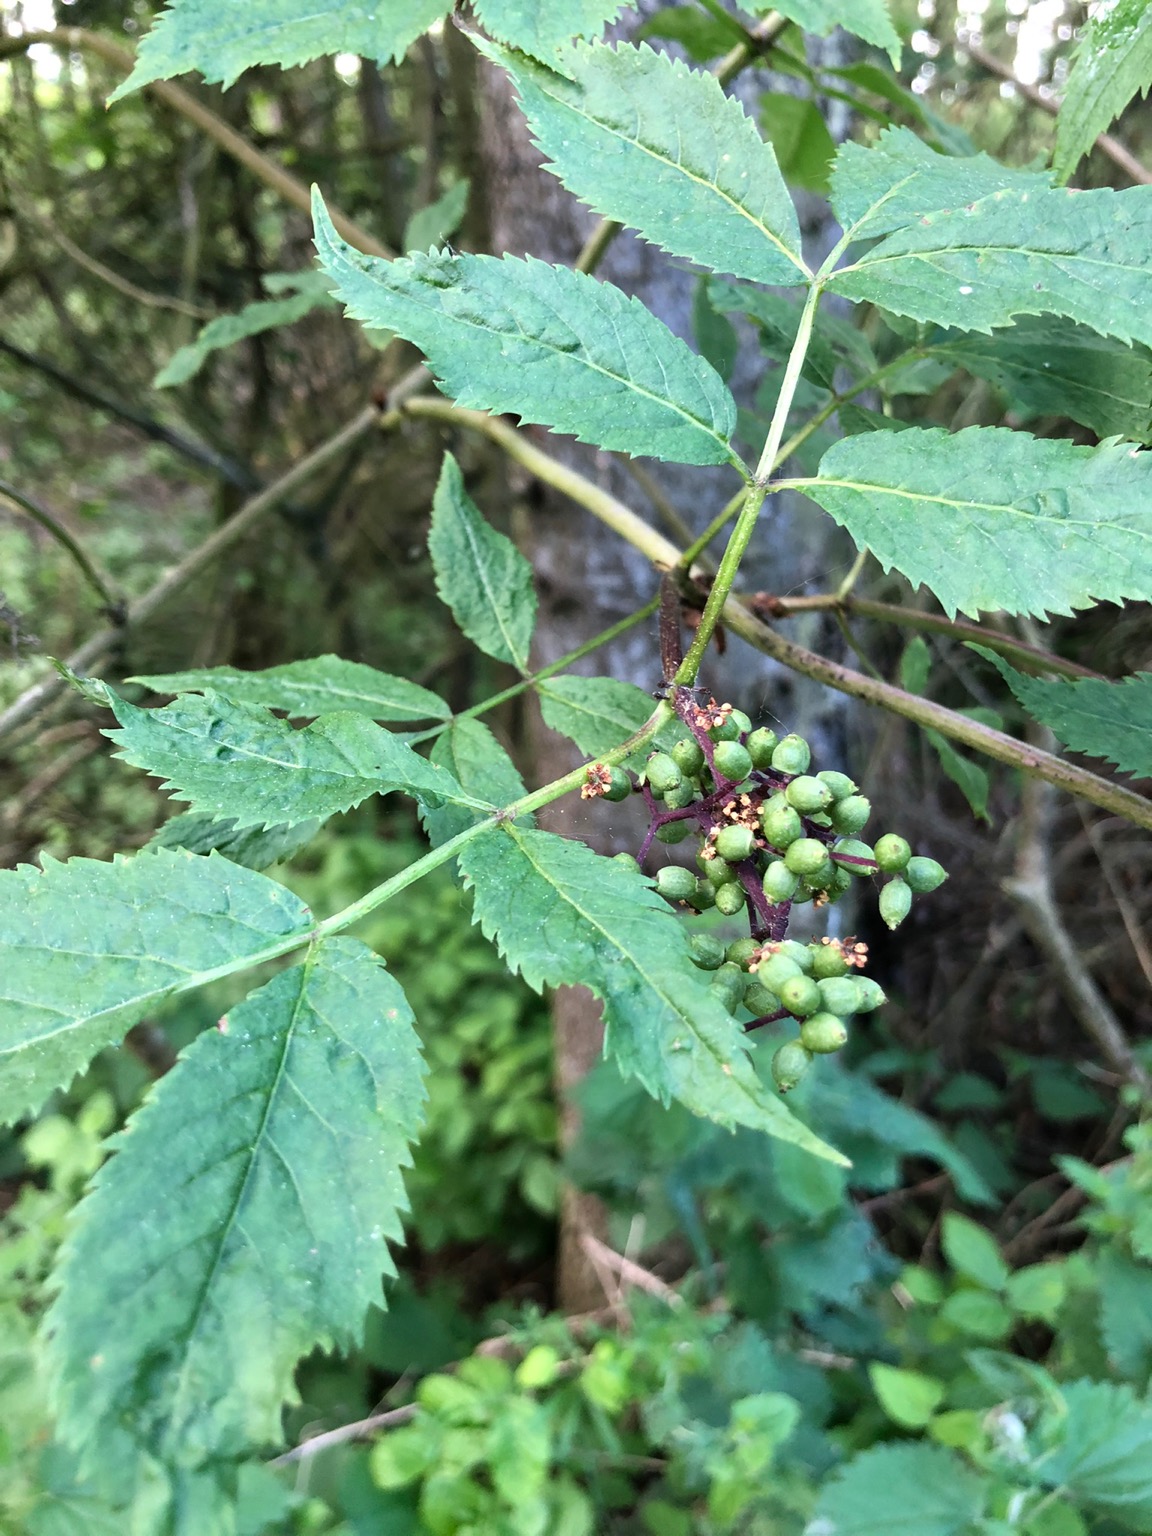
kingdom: Plantae
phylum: Tracheophyta
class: Magnoliopsida
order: Dipsacales
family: Viburnaceae
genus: Sambucus
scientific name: Sambucus racemosa
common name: Drue-hyld
